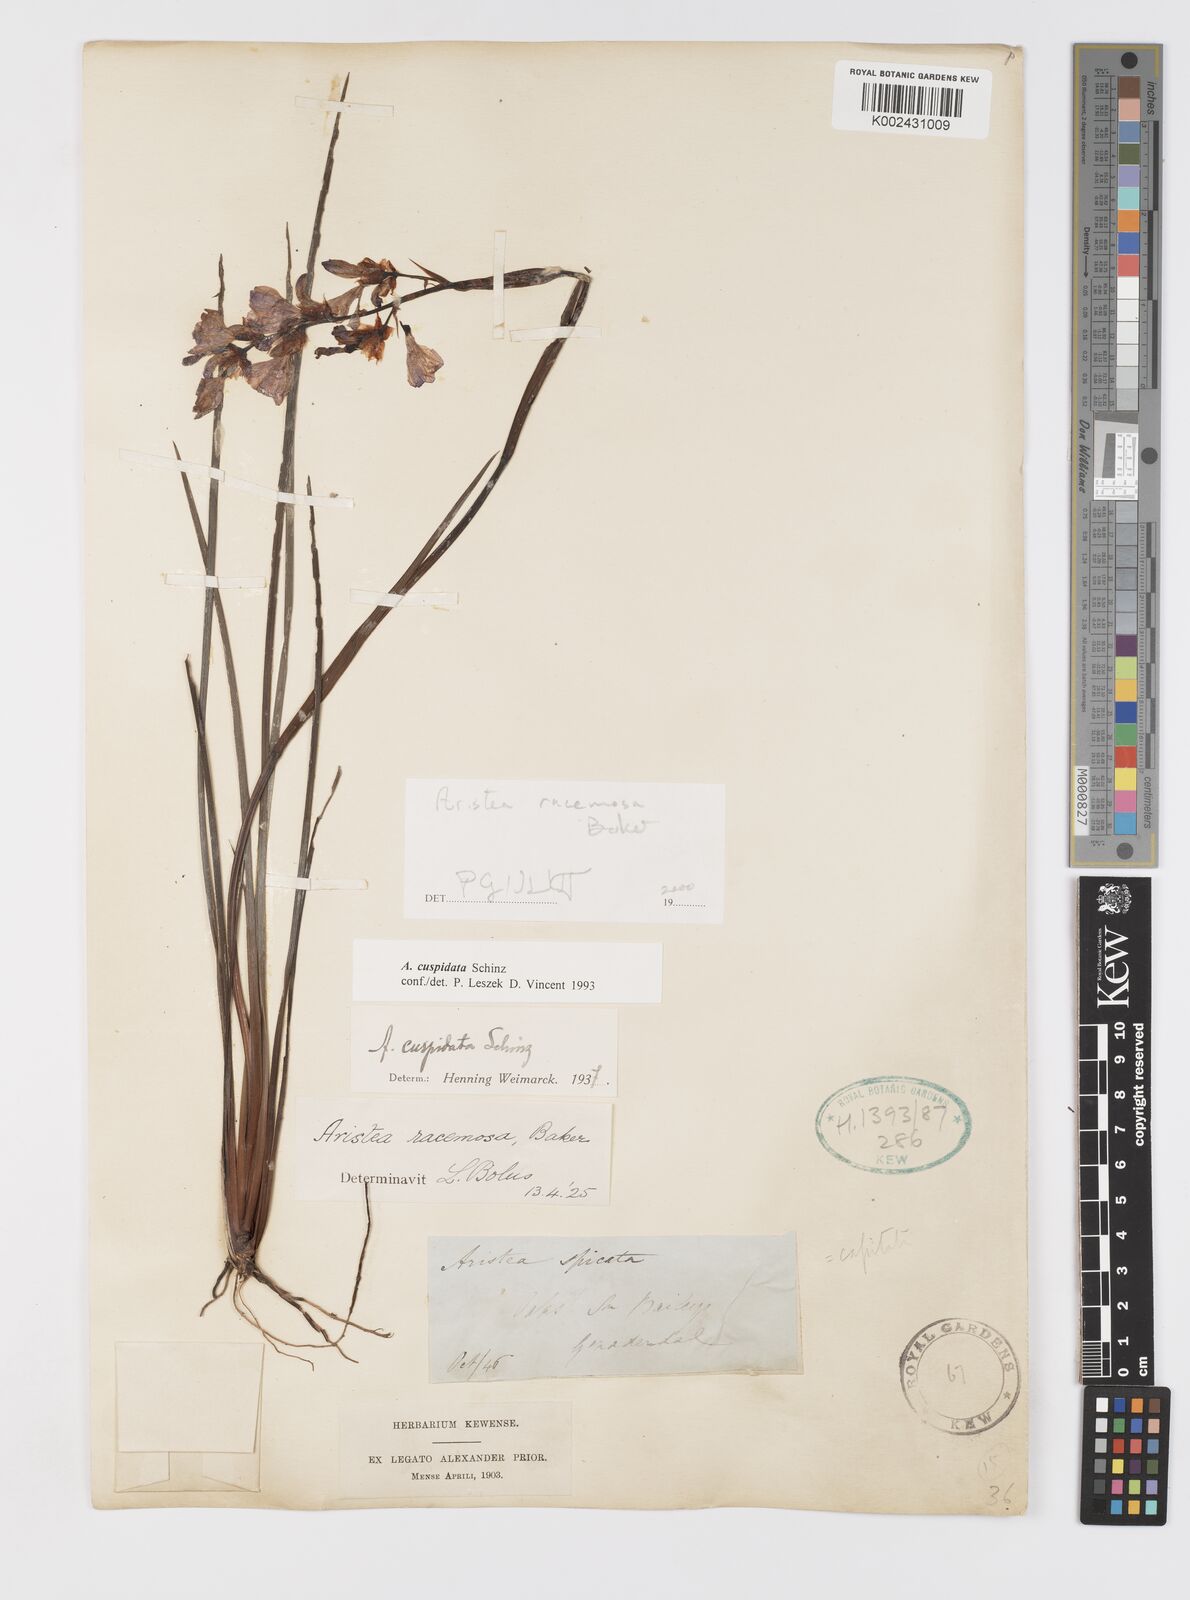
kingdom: Plantae
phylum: Tracheophyta
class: Liliopsida
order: Asparagales
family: Iridaceae
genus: Aristea
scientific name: Aristea racemosa
